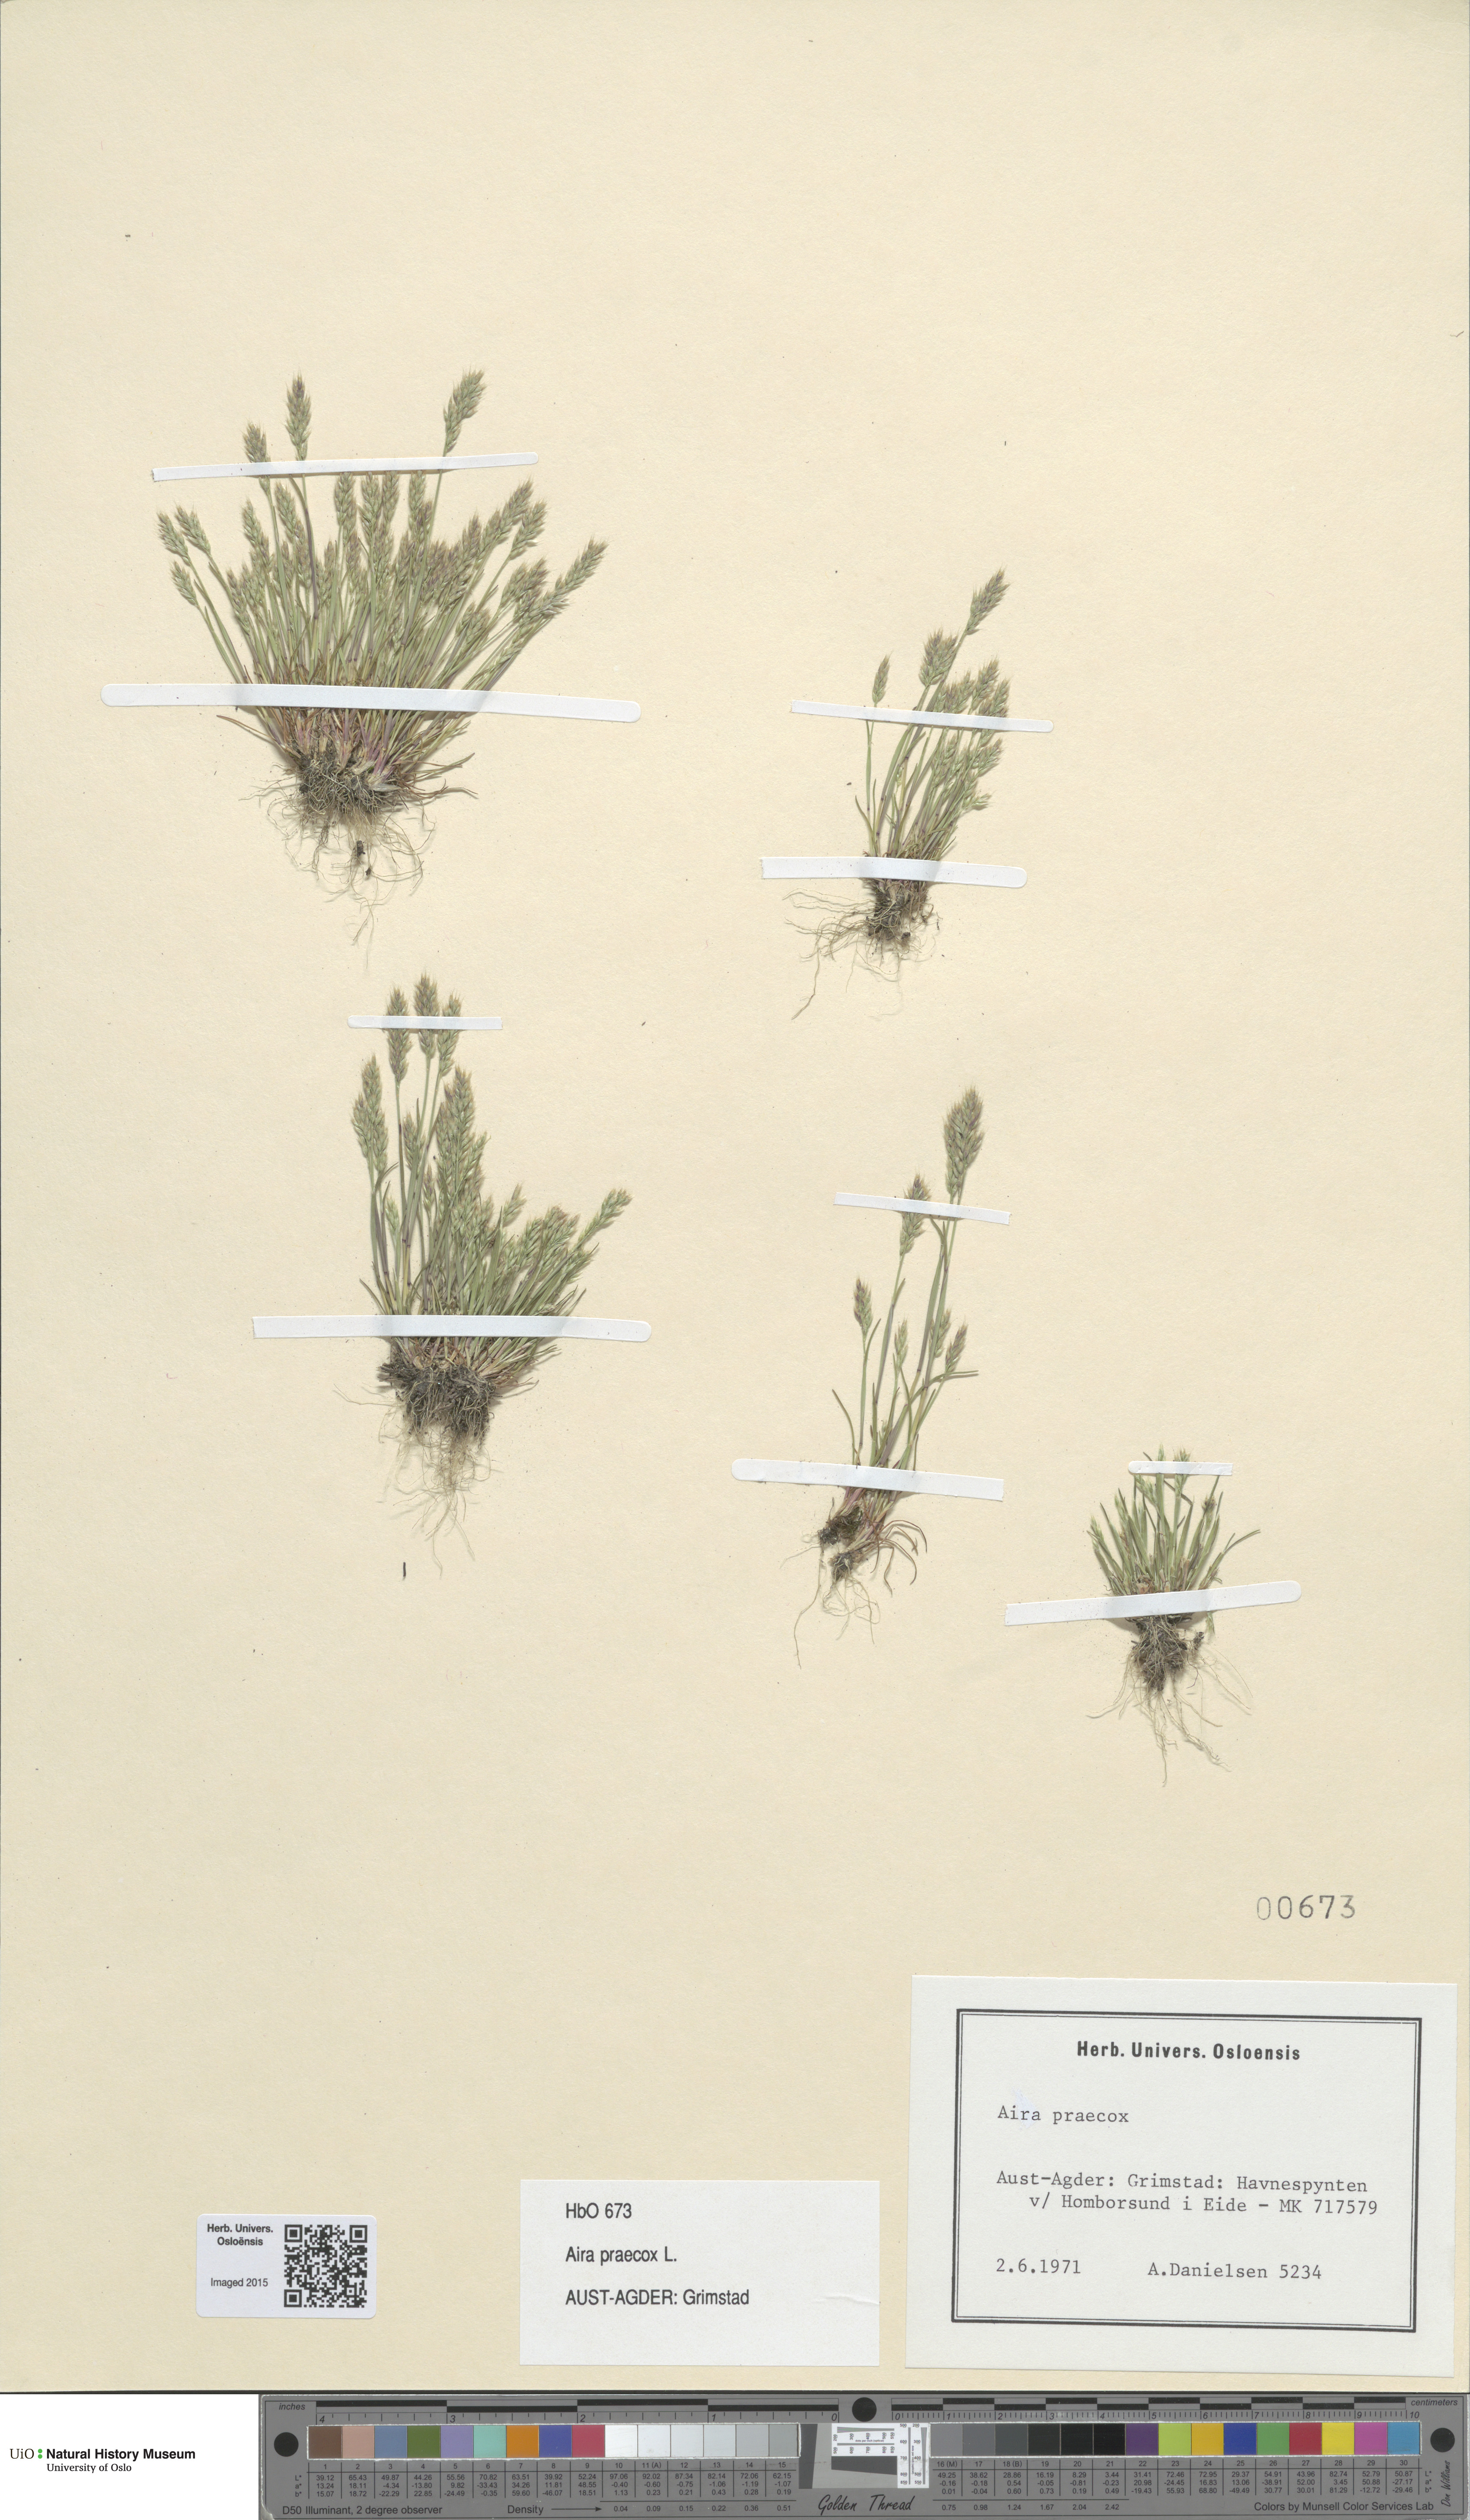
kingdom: Plantae
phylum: Tracheophyta
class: Liliopsida
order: Poales
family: Poaceae
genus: Aira
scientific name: Aira praecox
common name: Early hair-grass
